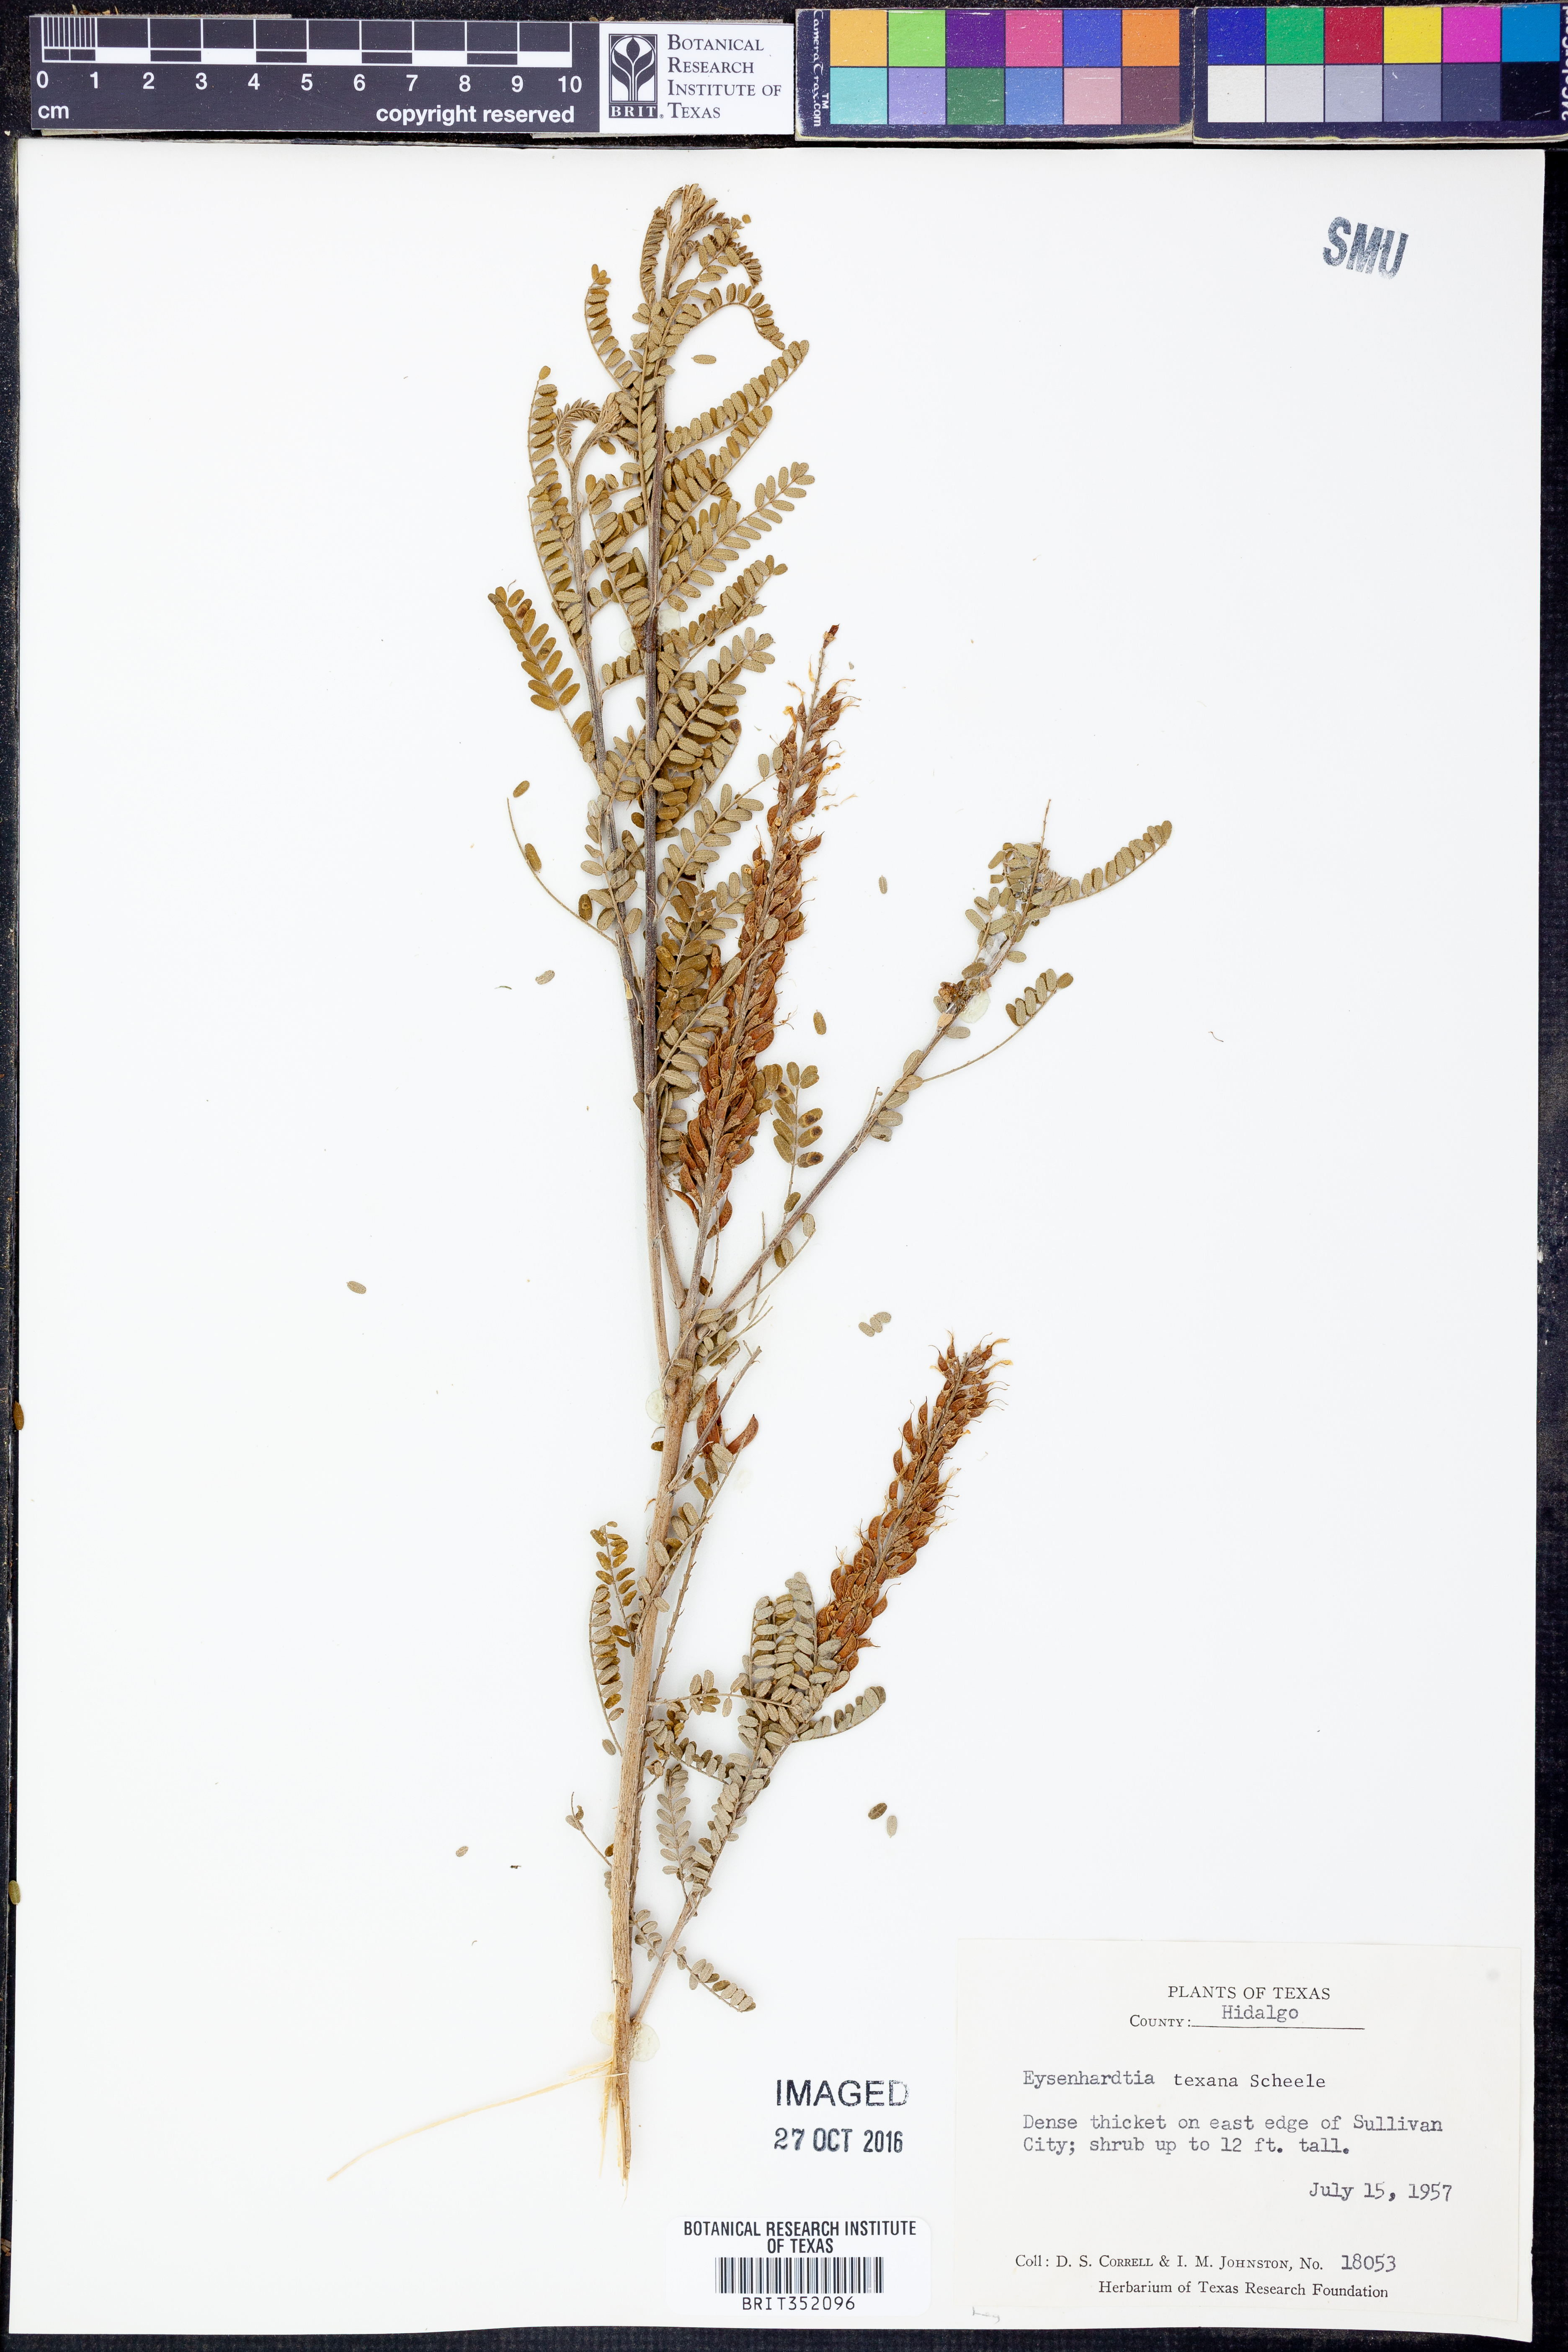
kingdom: Plantae
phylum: Tracheophyta
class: Magnoliopsida
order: Fabales
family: Fabaceae
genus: Eysenhardtia
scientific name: Eysenhardtia texana
